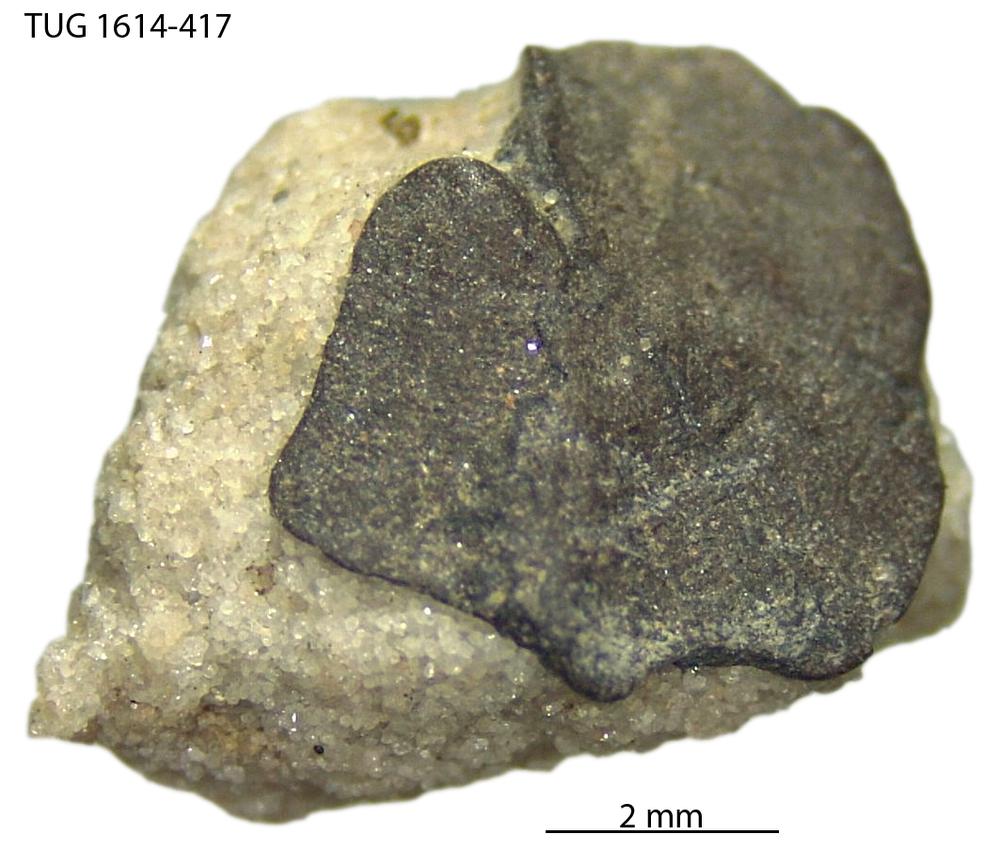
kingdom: Animalia
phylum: Mollusca
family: Scenellidae
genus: Scenella
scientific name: Scenella
